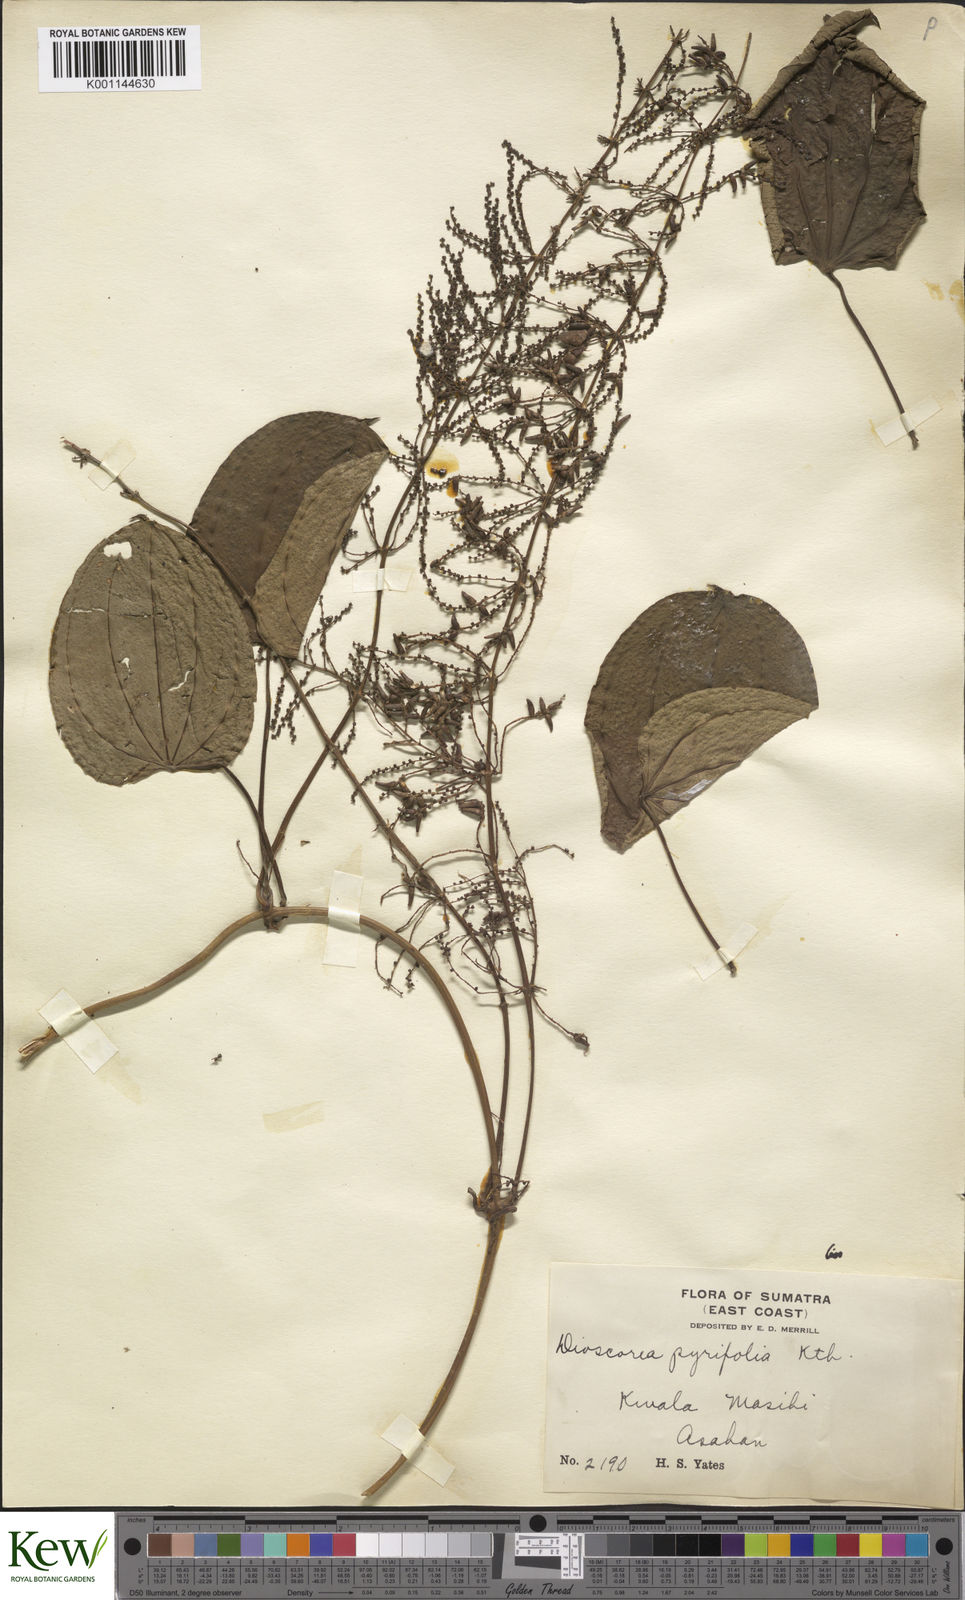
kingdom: Plantae
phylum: Tracheophyta
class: Liliopsida
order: Dioscoreales
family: Dioscoreaceae
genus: Dioscorea
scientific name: Dioscorea pyrifolia
